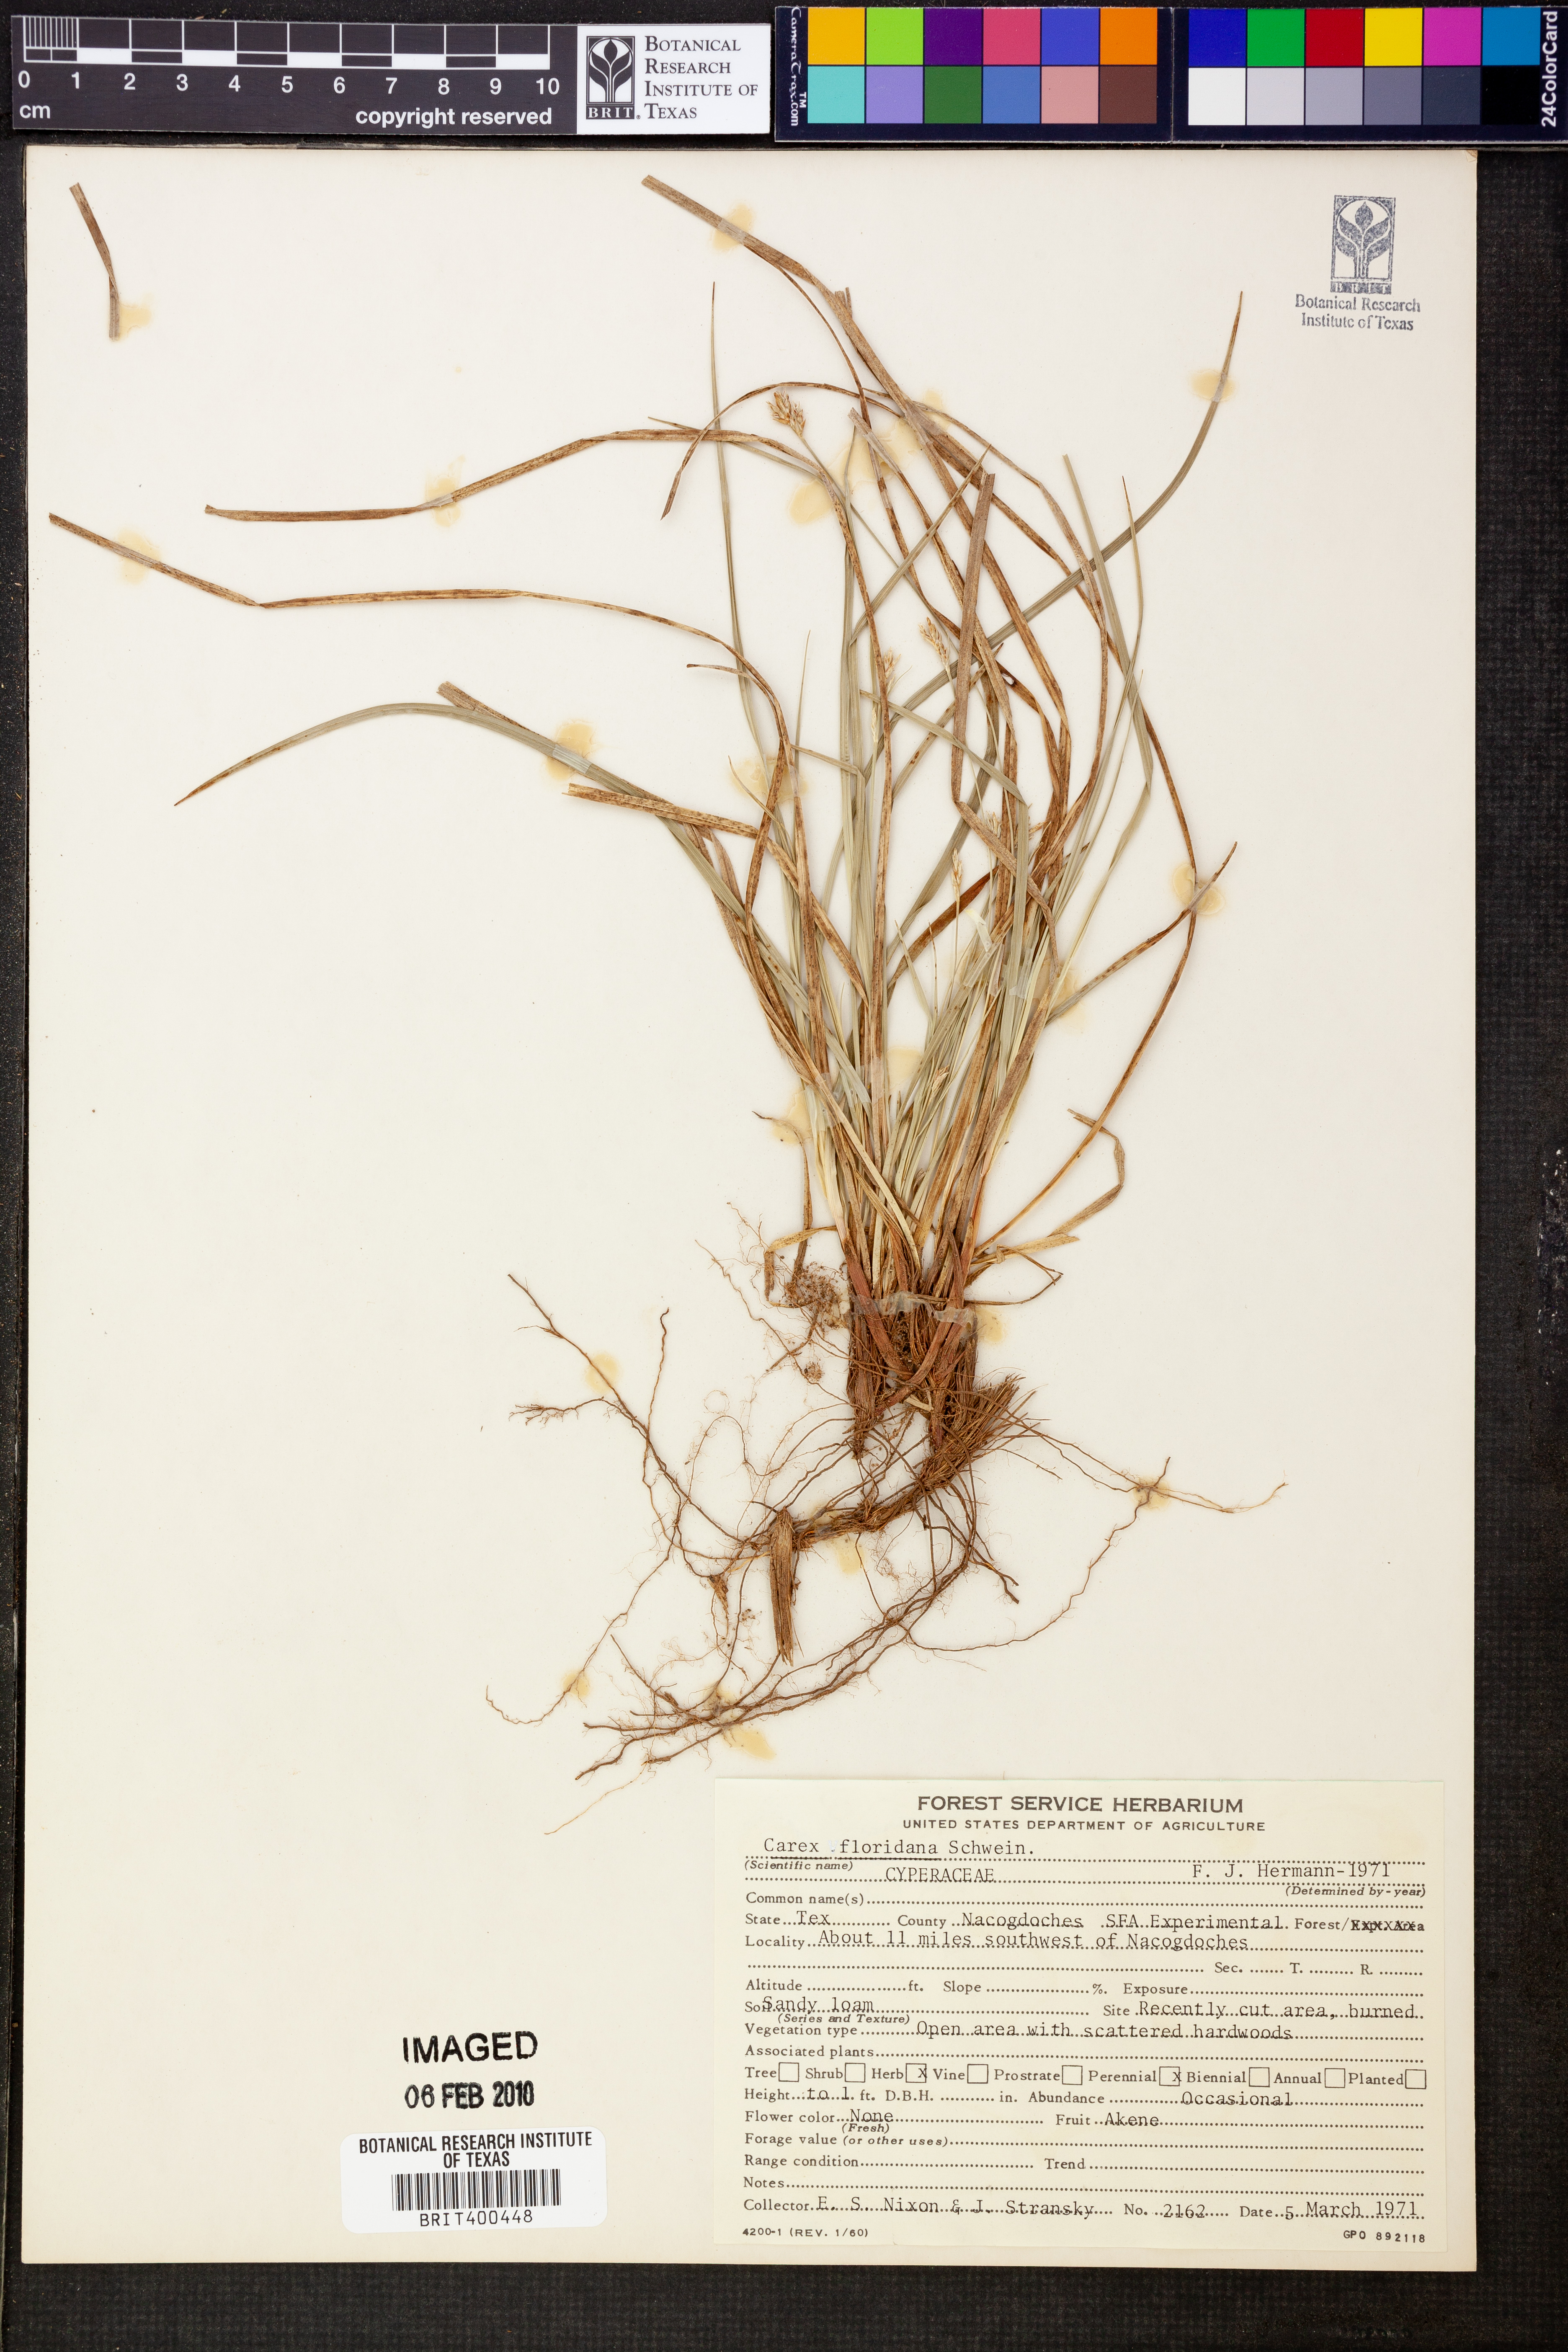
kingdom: Plantae
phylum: Tracheophyta
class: Liliopsida
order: Poales
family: Cyperaceae
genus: Carex
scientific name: Carex floridana
